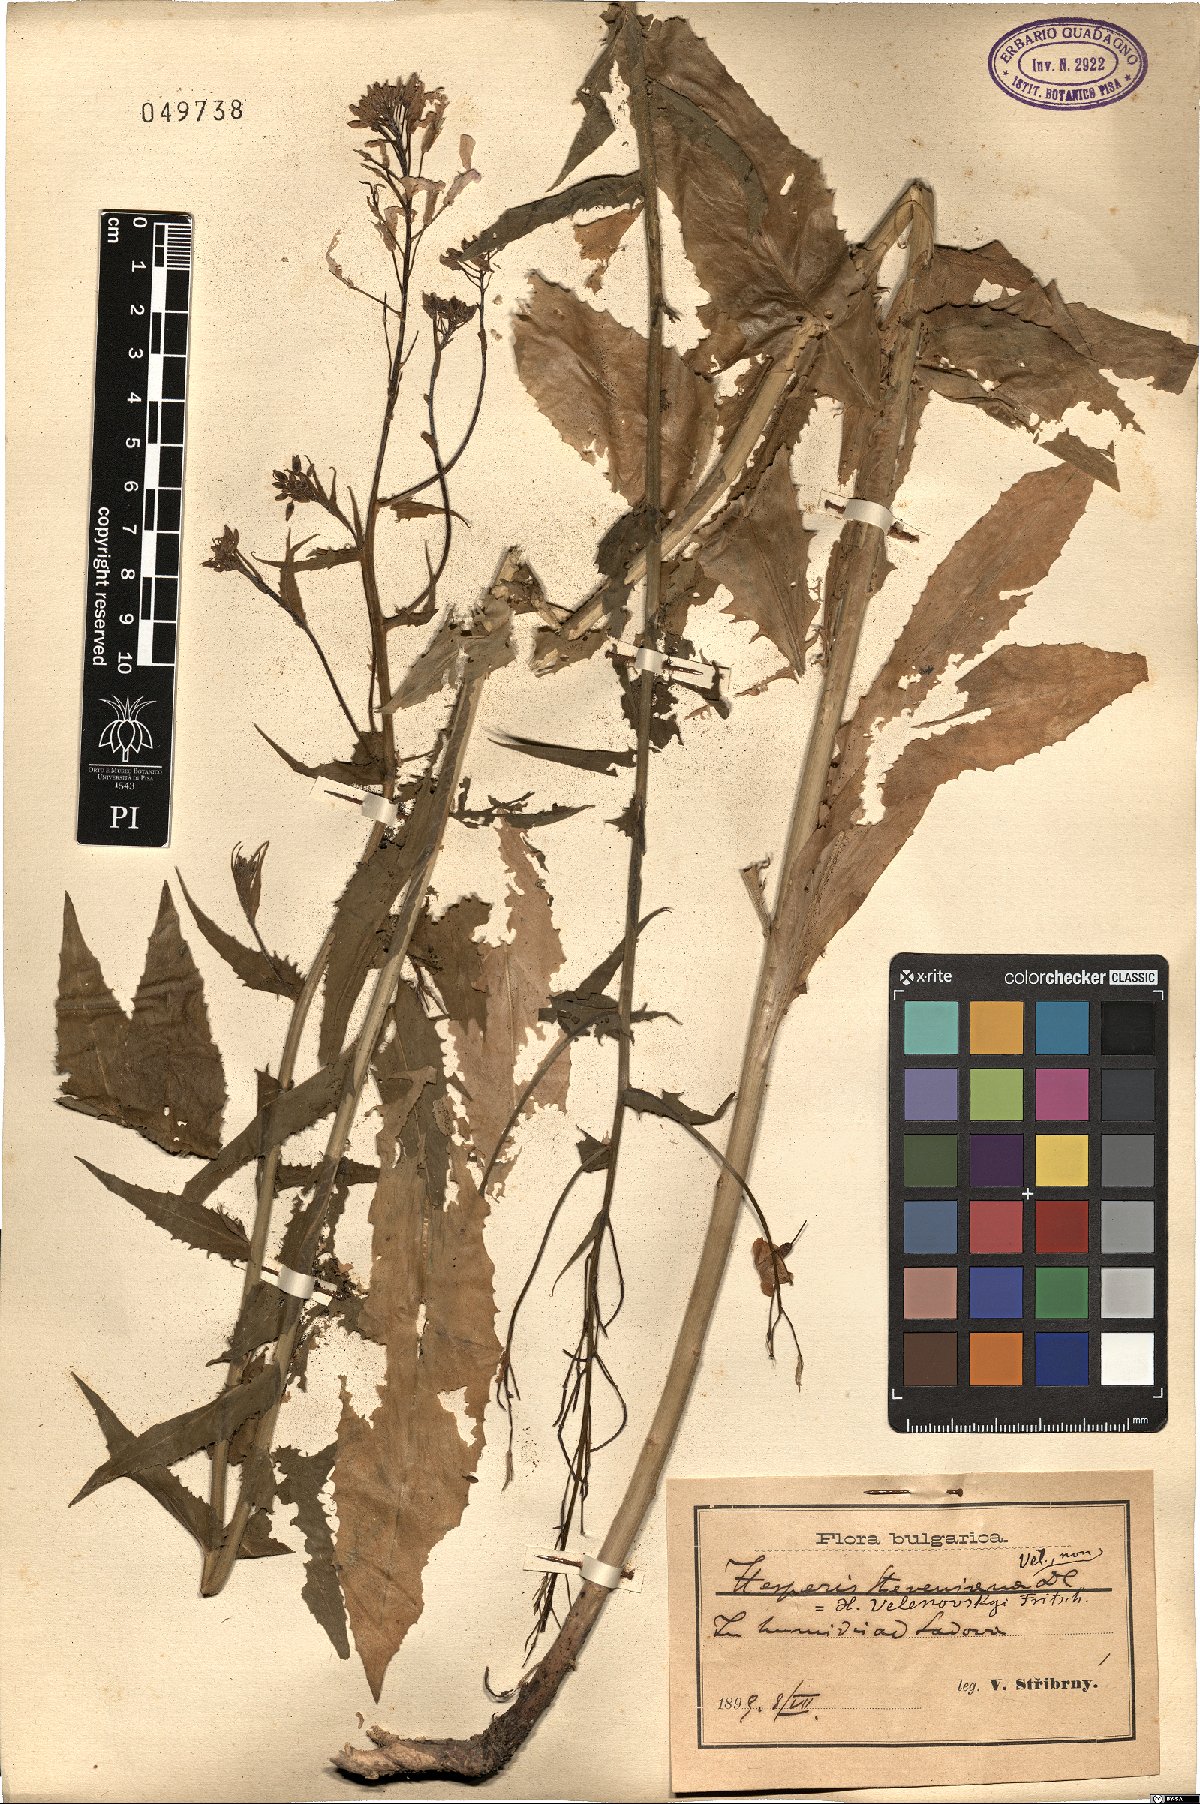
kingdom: Plantae
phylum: Tracheophyta
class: Magnoliopsida
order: Brassicales
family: Brassicaceae
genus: Hesperis
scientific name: Hesperis steveniana
